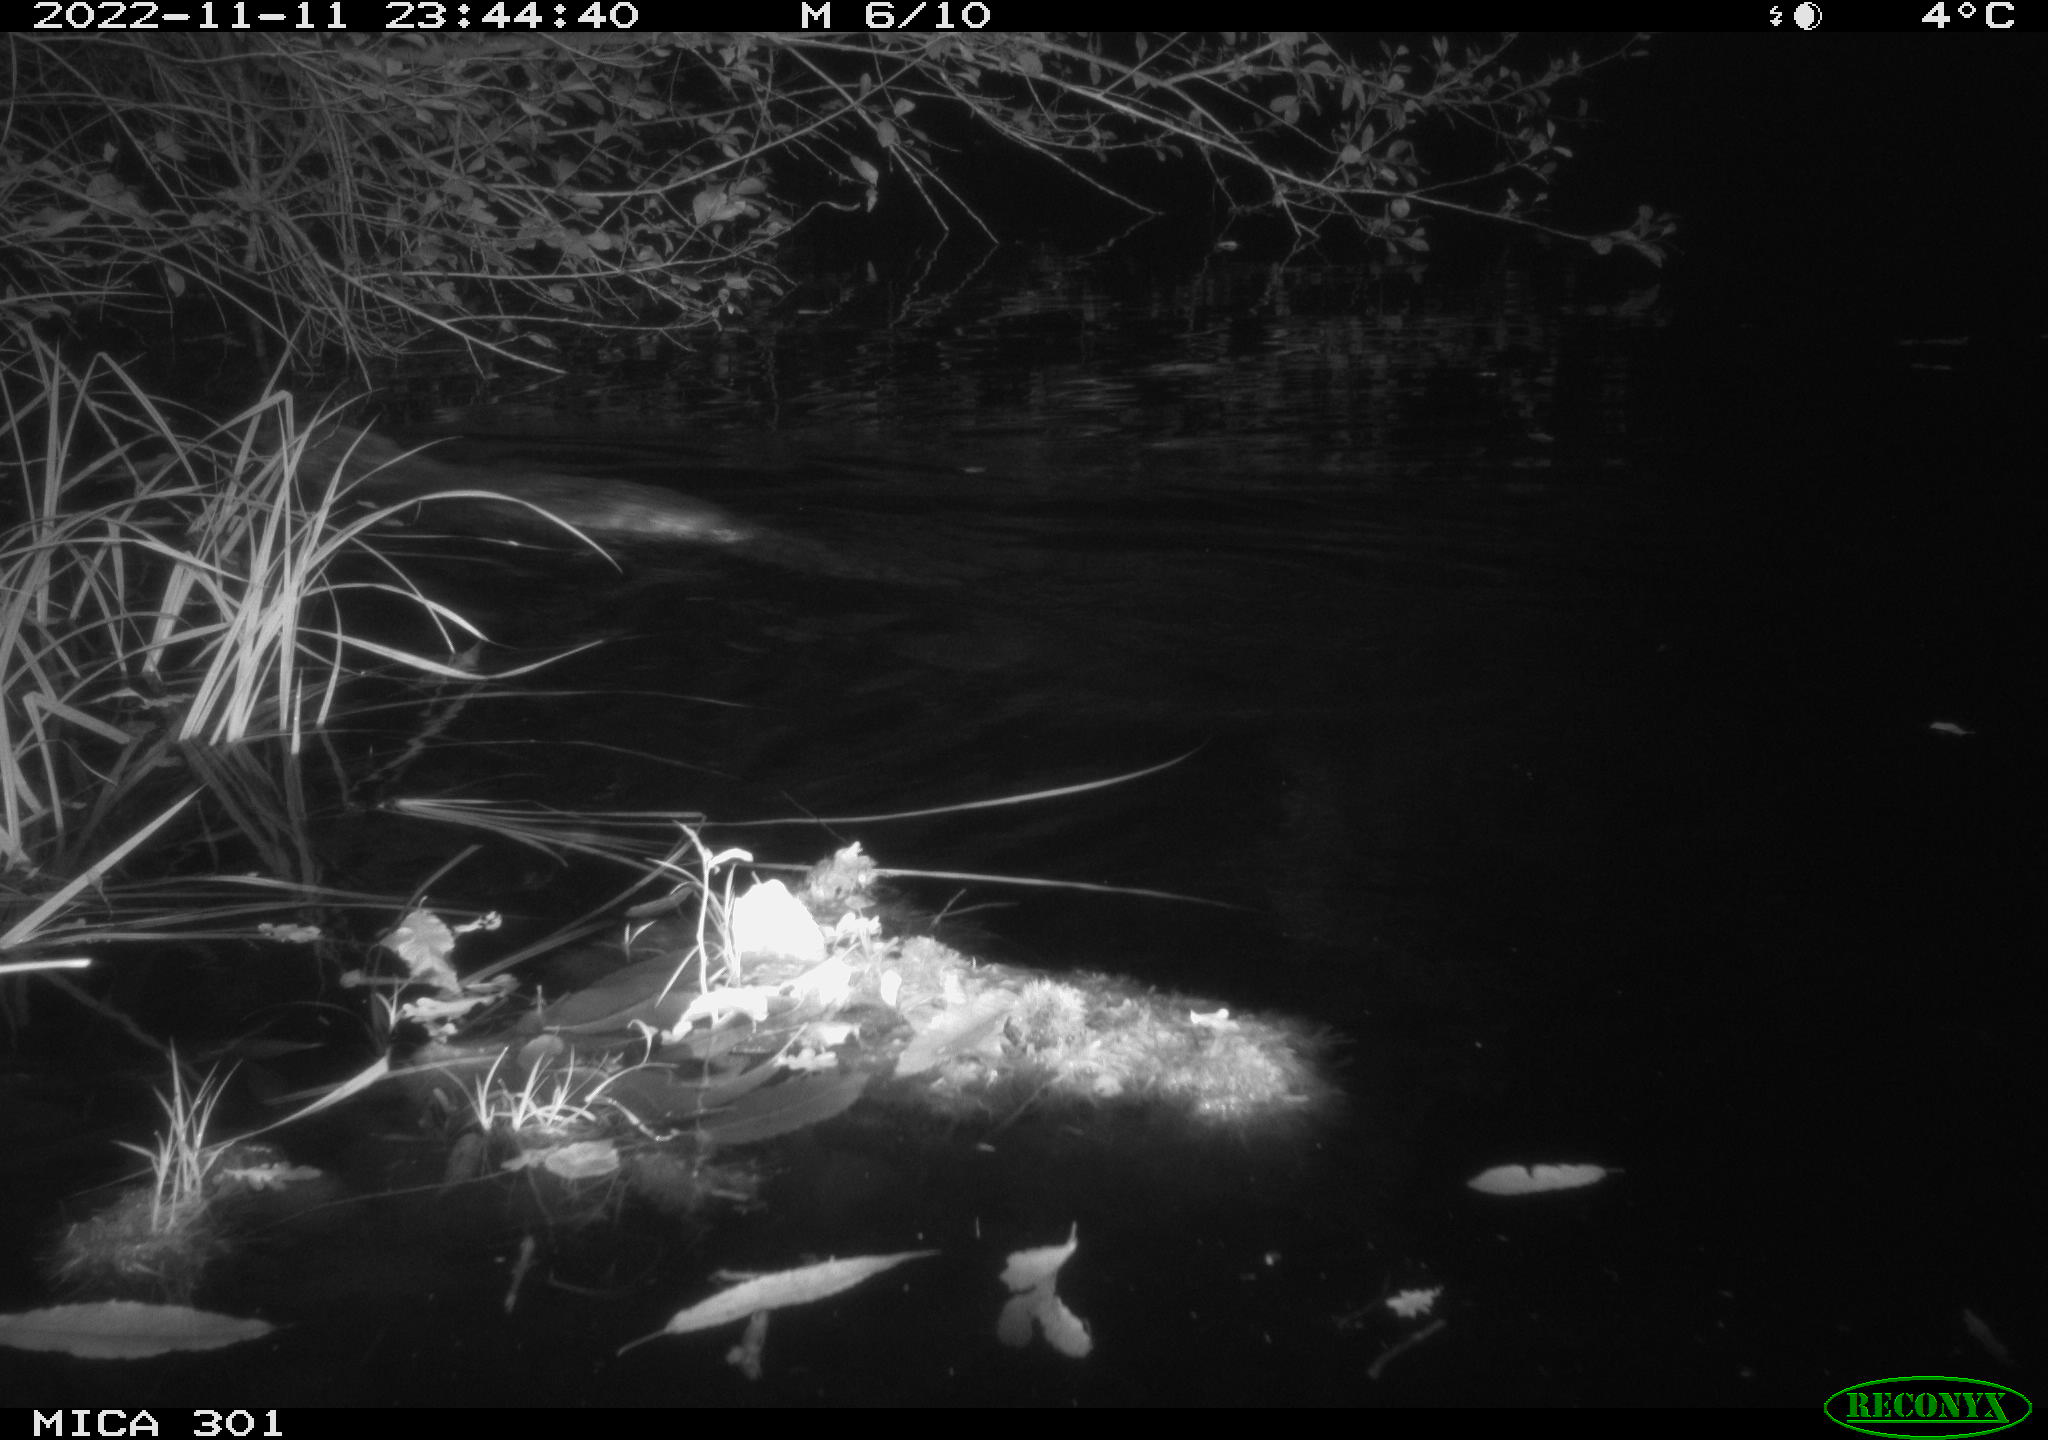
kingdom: Animalia
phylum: Chordata
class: Mammalia
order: Rodentia
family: Castoridae
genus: Castor
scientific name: Castor fiber
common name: Eurasian beaver
